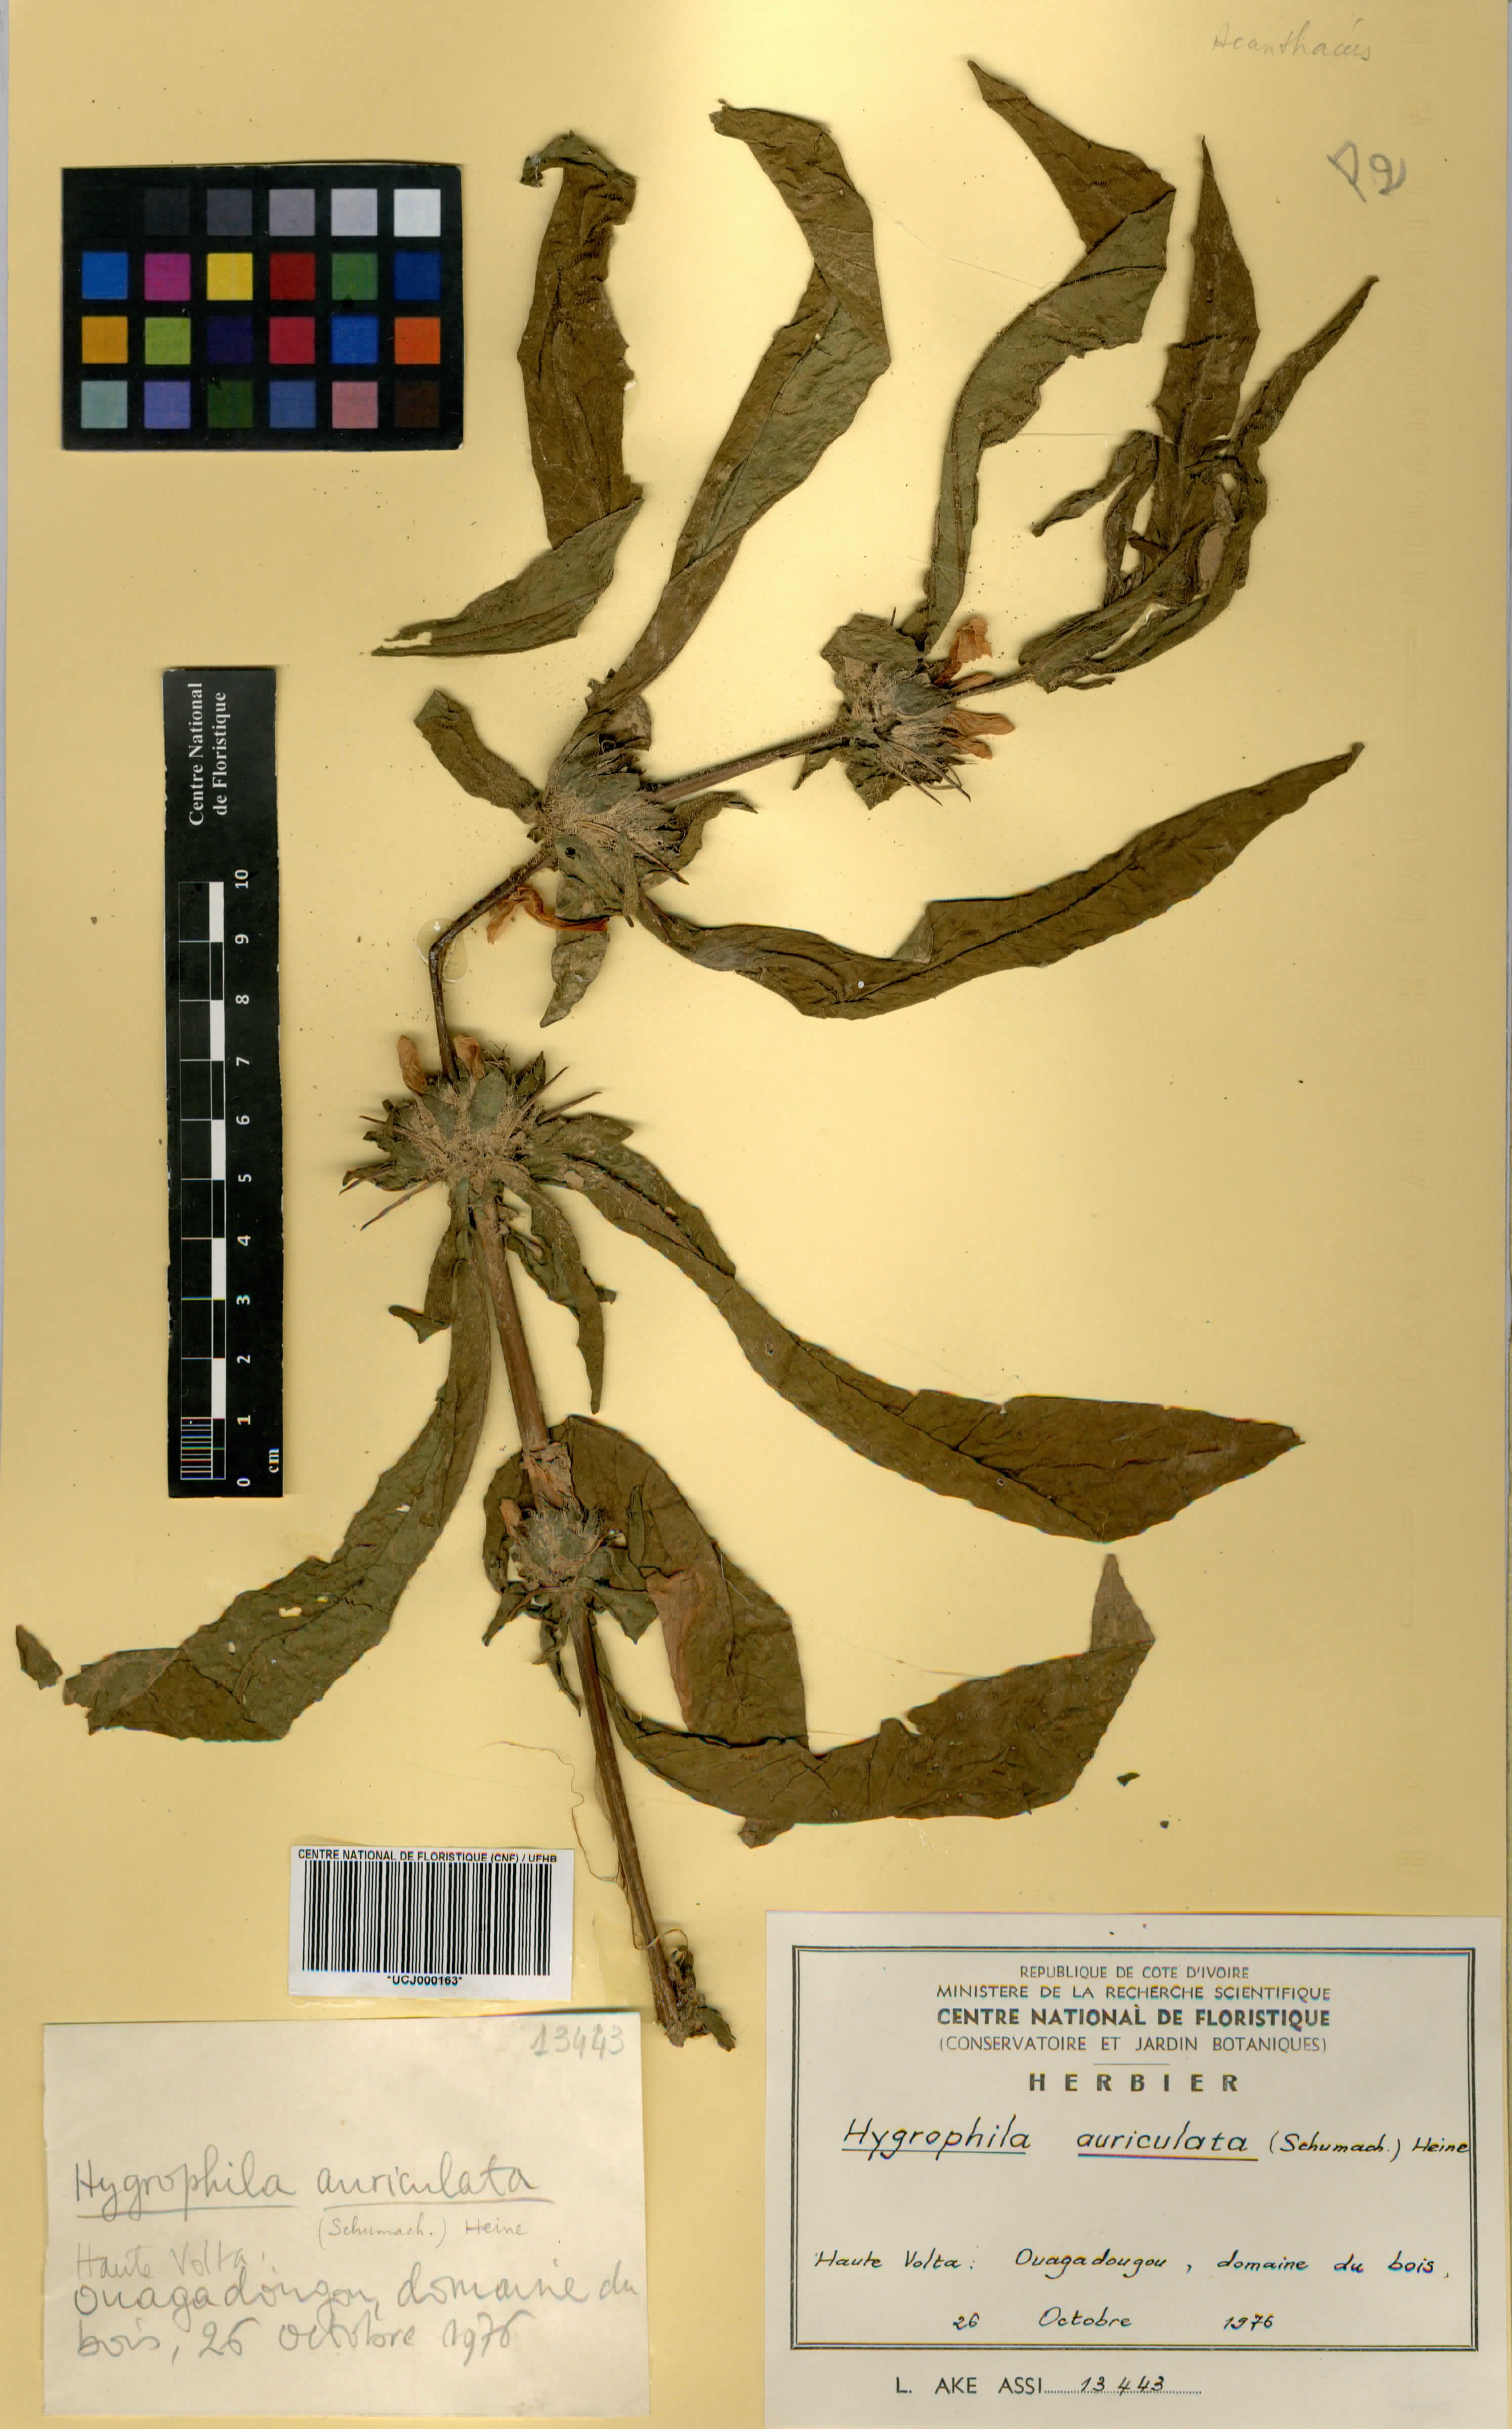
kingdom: Plantae
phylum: Tracheophyta
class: Magnoliopsida
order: Lamiales
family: Acanthaceae
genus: Hygrophila
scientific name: Hygrophila auriculata
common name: Hygrophila
